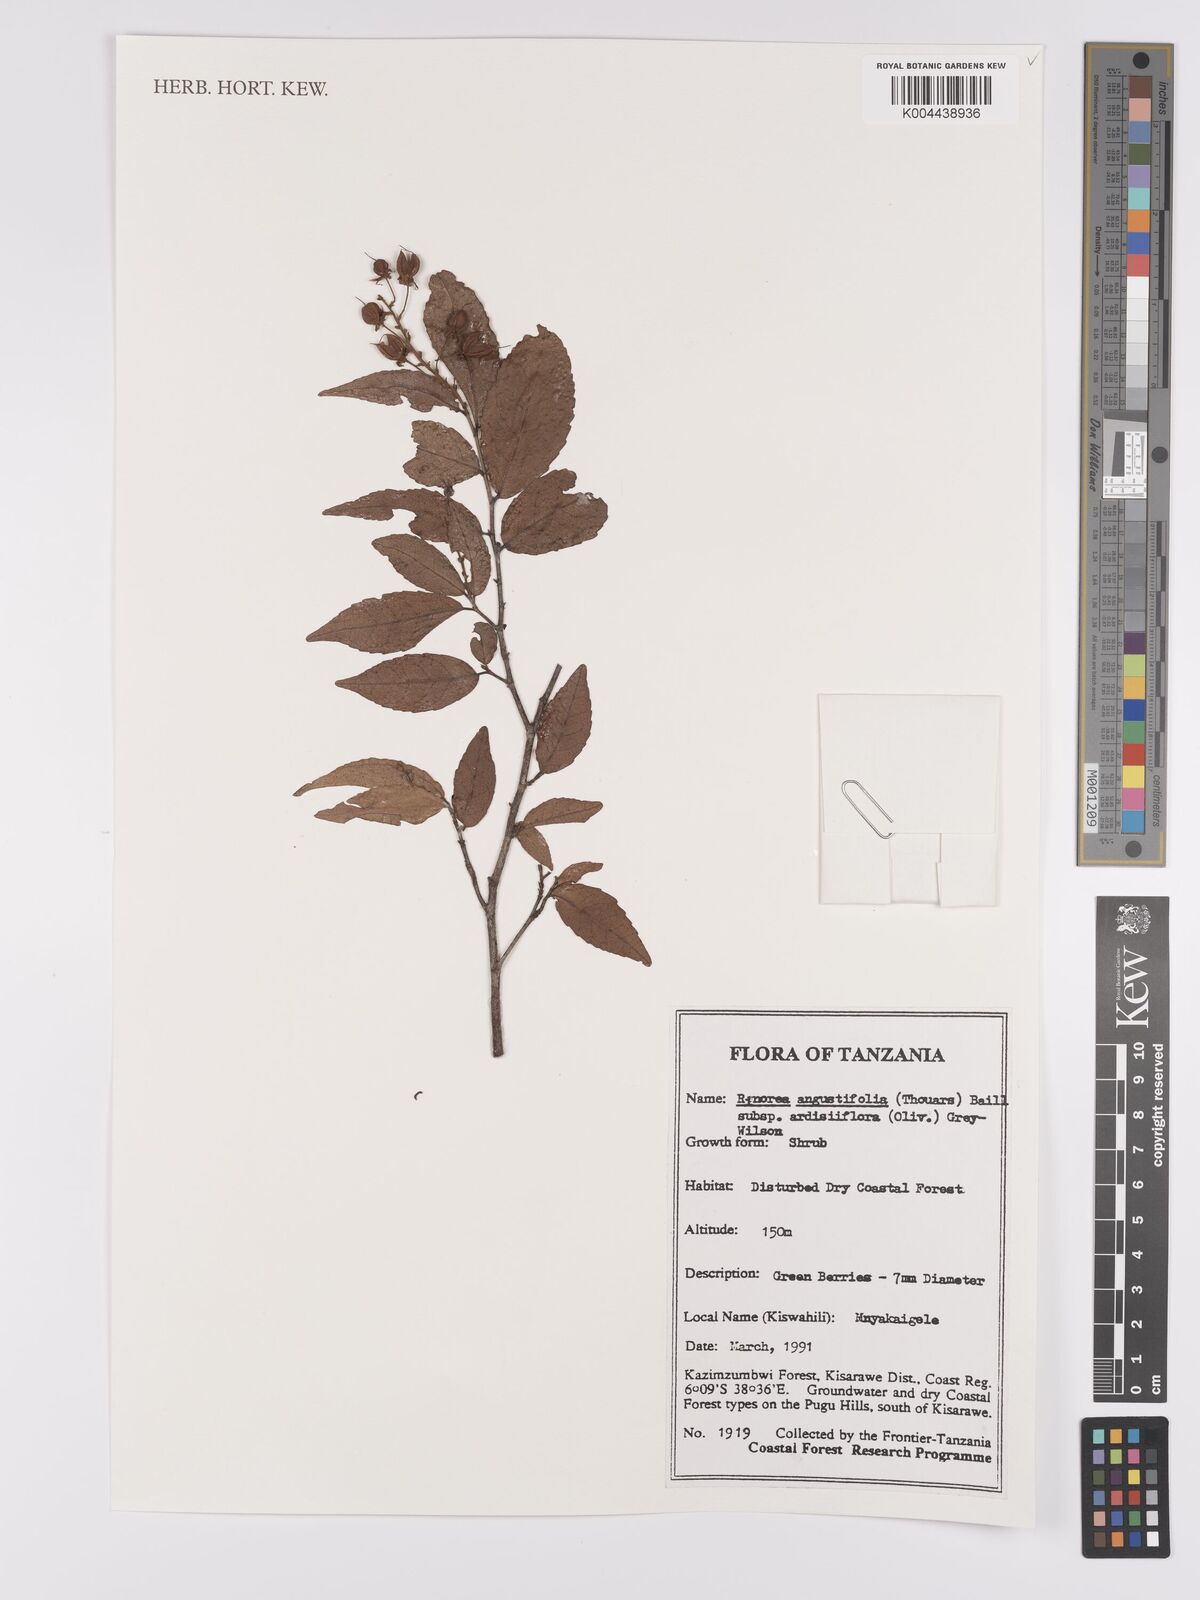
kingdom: Plantae
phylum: Tracheophyta
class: Magnoliopsida
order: Malpighiales
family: Violaceae
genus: Rinorea
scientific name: Rinorea angustifolia
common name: White violet-bush
